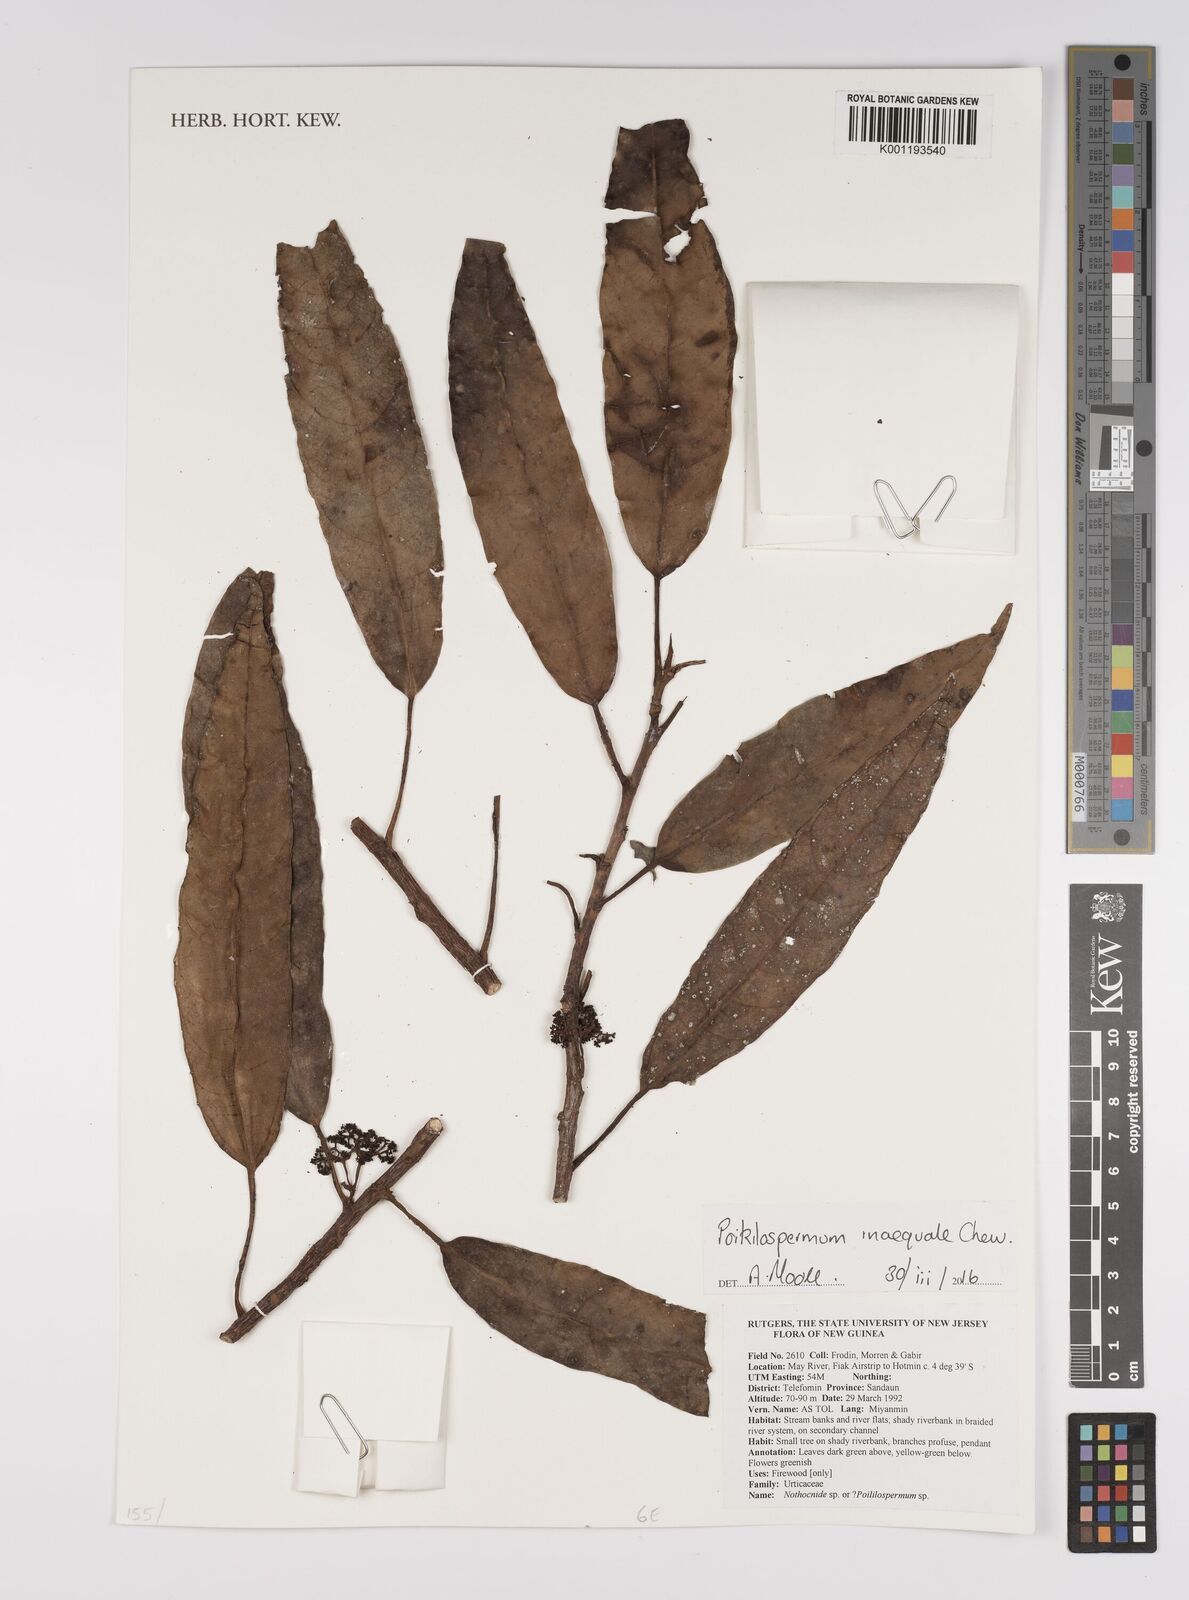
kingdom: Plantae
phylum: Tracheophyta
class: Magnoliopsida
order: Rosales
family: Urticaceae
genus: Poikilospermum
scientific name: Poikilospermum inaequale
